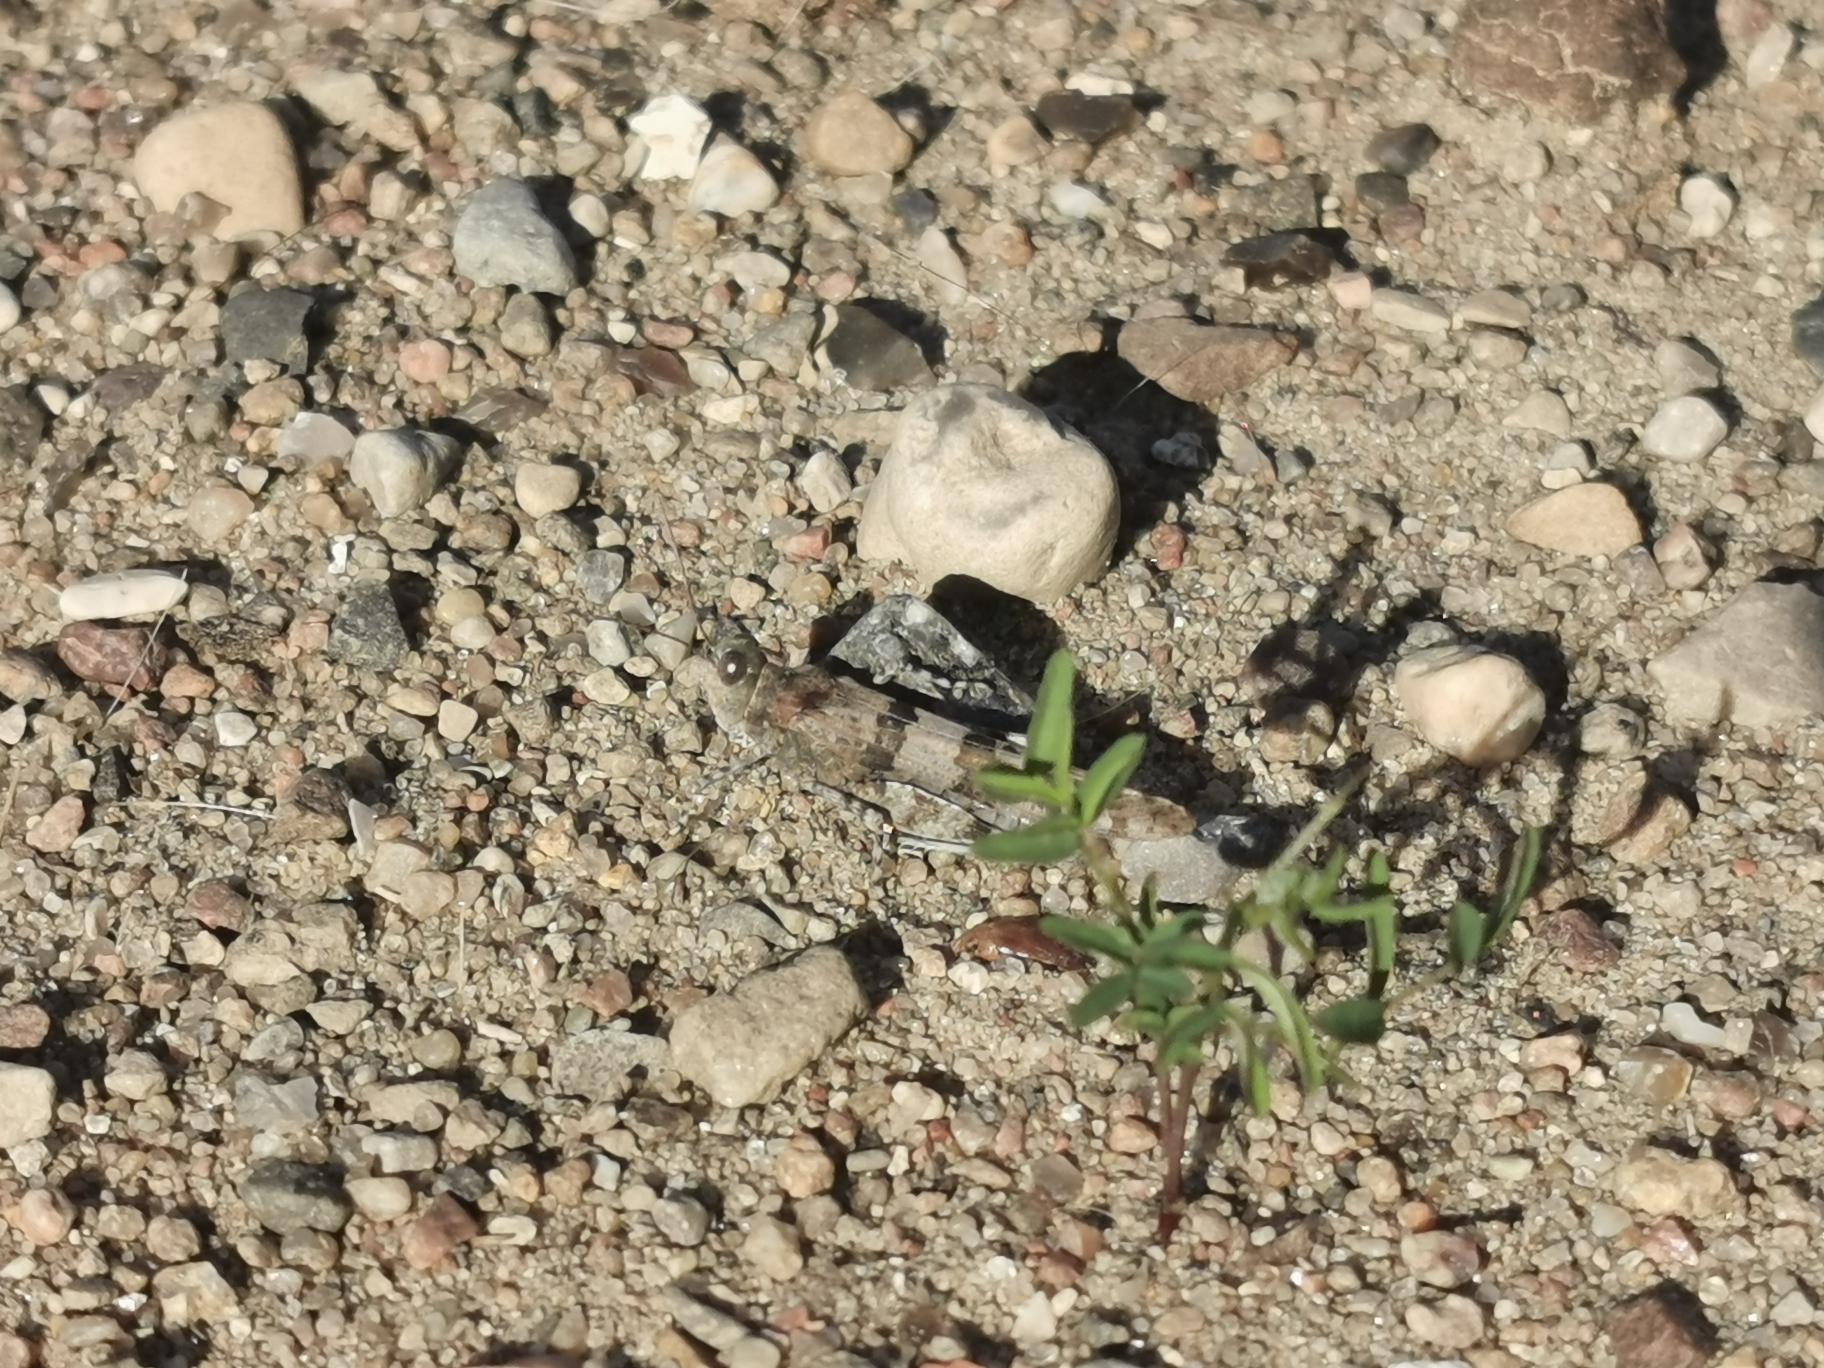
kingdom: Animalia
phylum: Arthropoda
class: Insecta
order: Orthoptera
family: Acrididae
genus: Sphingonotus
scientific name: Sphingonotus caerulans
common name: Blåvinget steppegræshoppe
